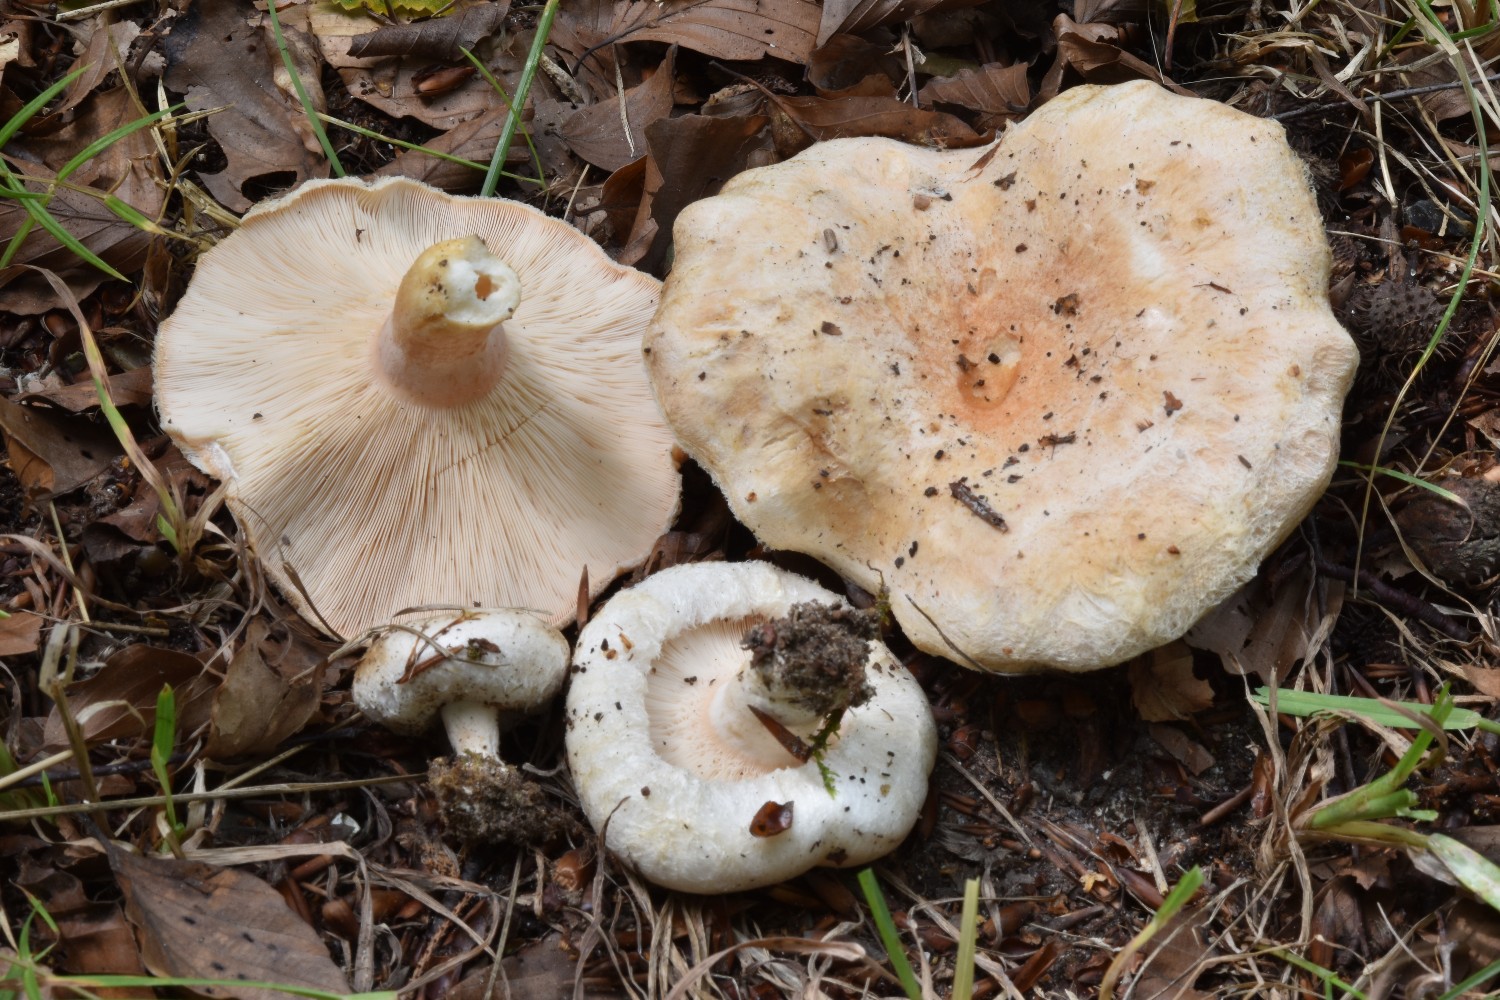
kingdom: Fungi
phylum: Basidiomycota
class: Agaricomycetes
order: Russulales
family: Russulaceae
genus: Lactarius
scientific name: Lactarius pubescens
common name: dunet mælkehat
